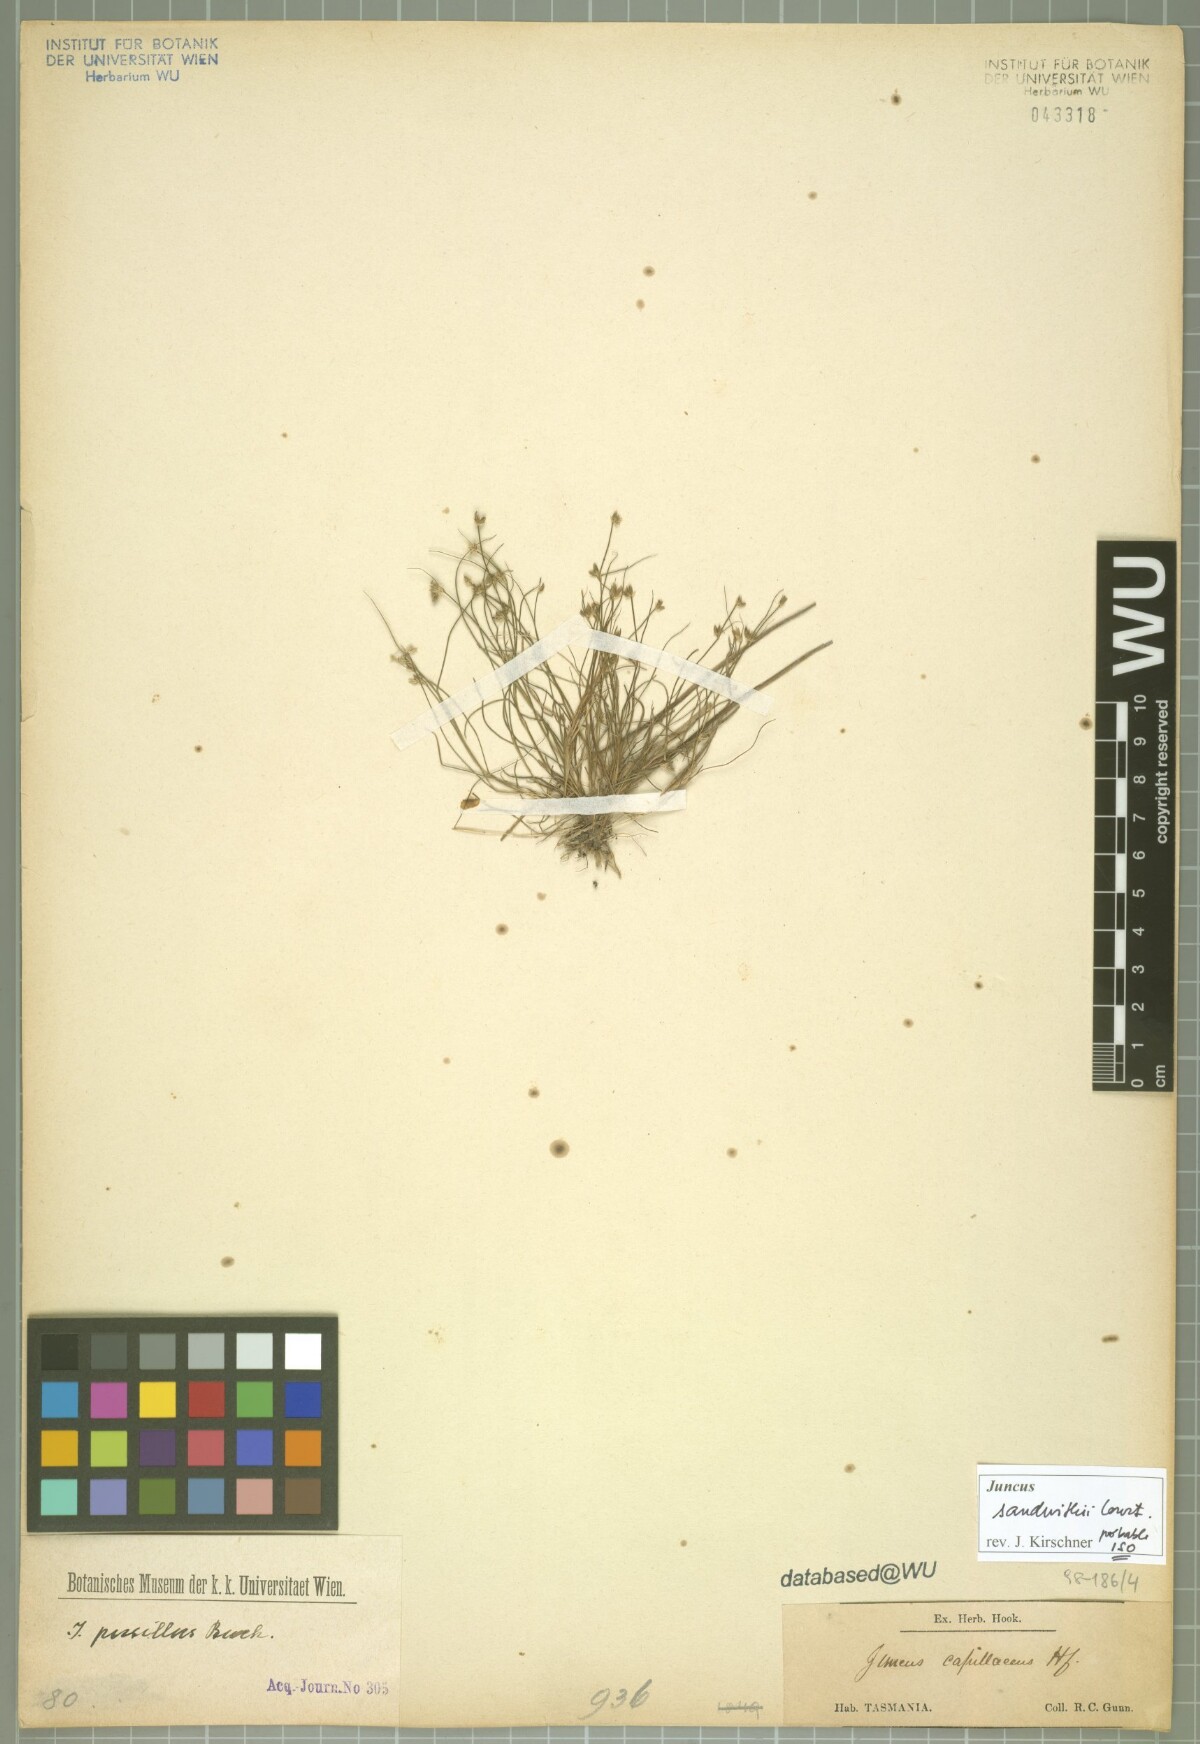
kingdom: Plantae
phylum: Tracheophyta
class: Liliopsida
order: Poales
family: Juncaceae
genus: Juncus
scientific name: Juncus sandwithii
